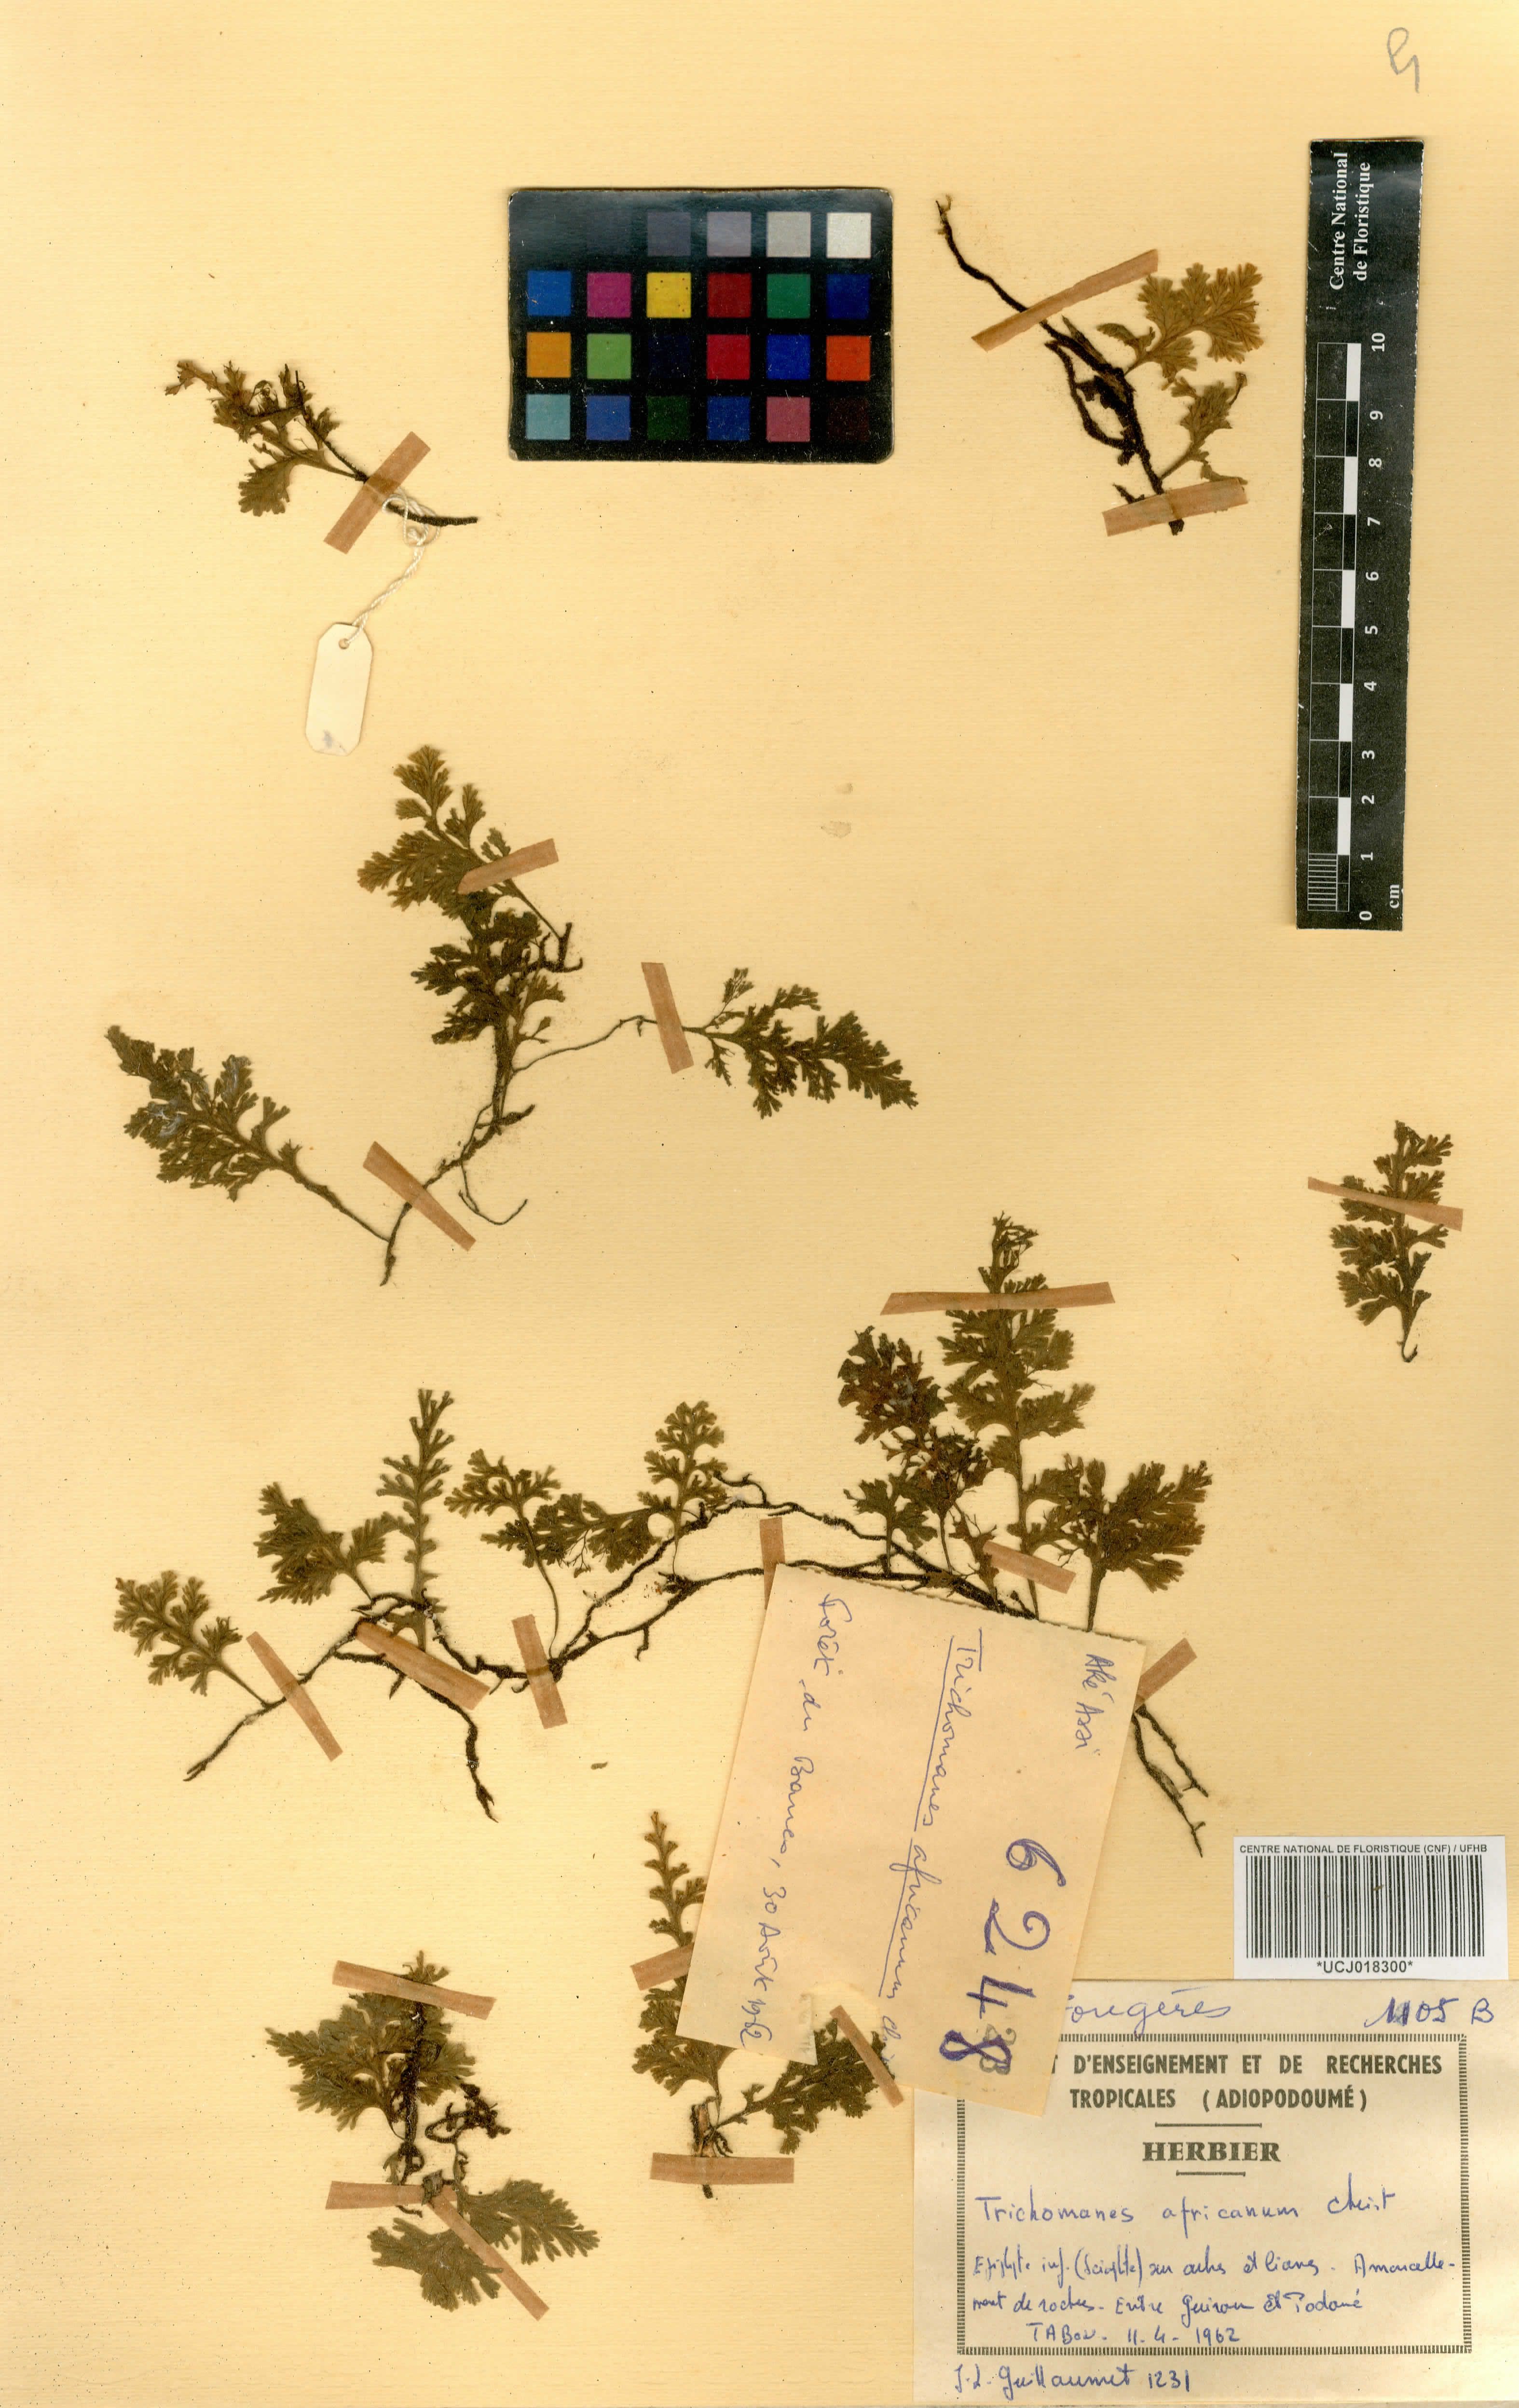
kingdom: Plantae
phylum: Tracheophyta
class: Polypodiopsida
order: Hymenophyllales
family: Hymenophyllaceae
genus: Crepidomanes
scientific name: Crepidomanes africanum
